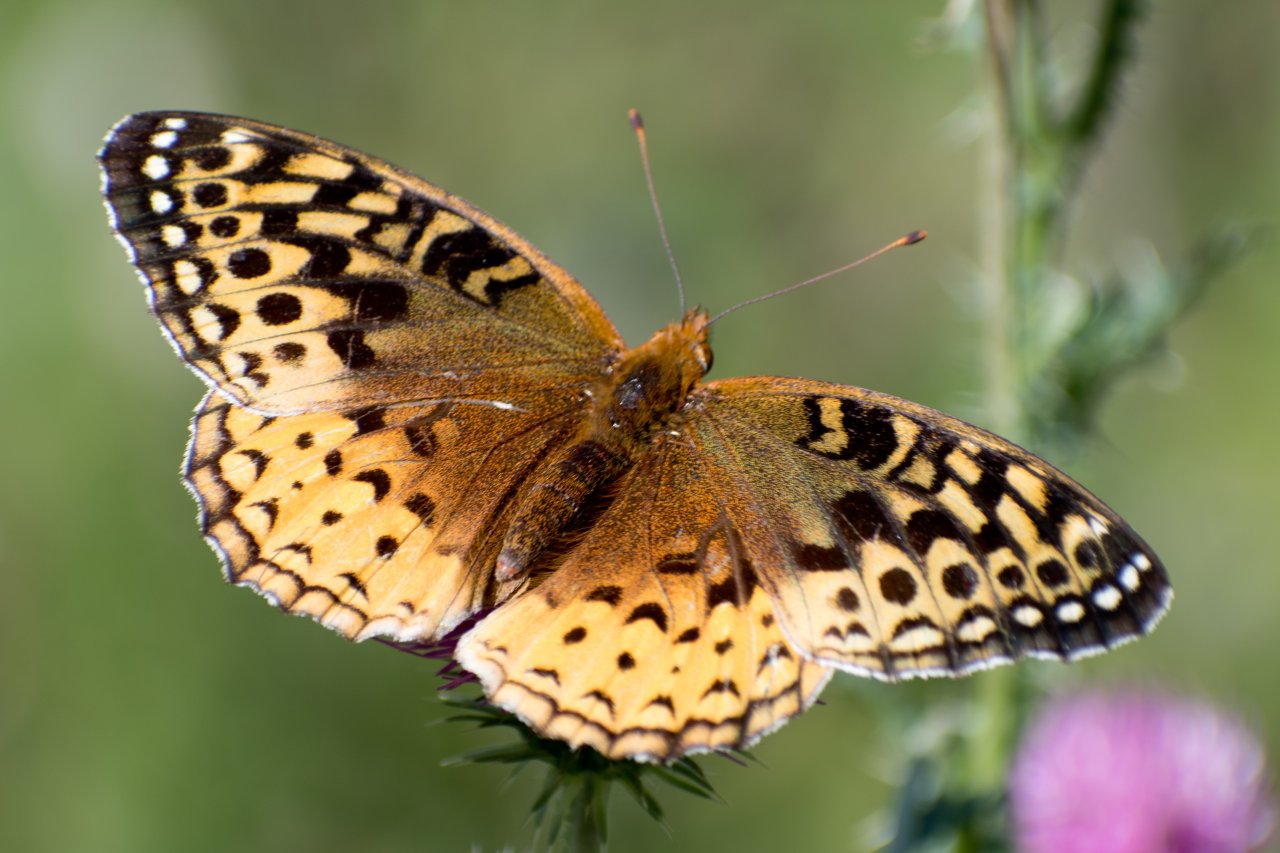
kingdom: Animalia
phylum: Arthropoda
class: Insecta
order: Lepidoptera
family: Nymphalidae
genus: Speyeria
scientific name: Speyeria cybele
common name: Great Spangled Fritillary
